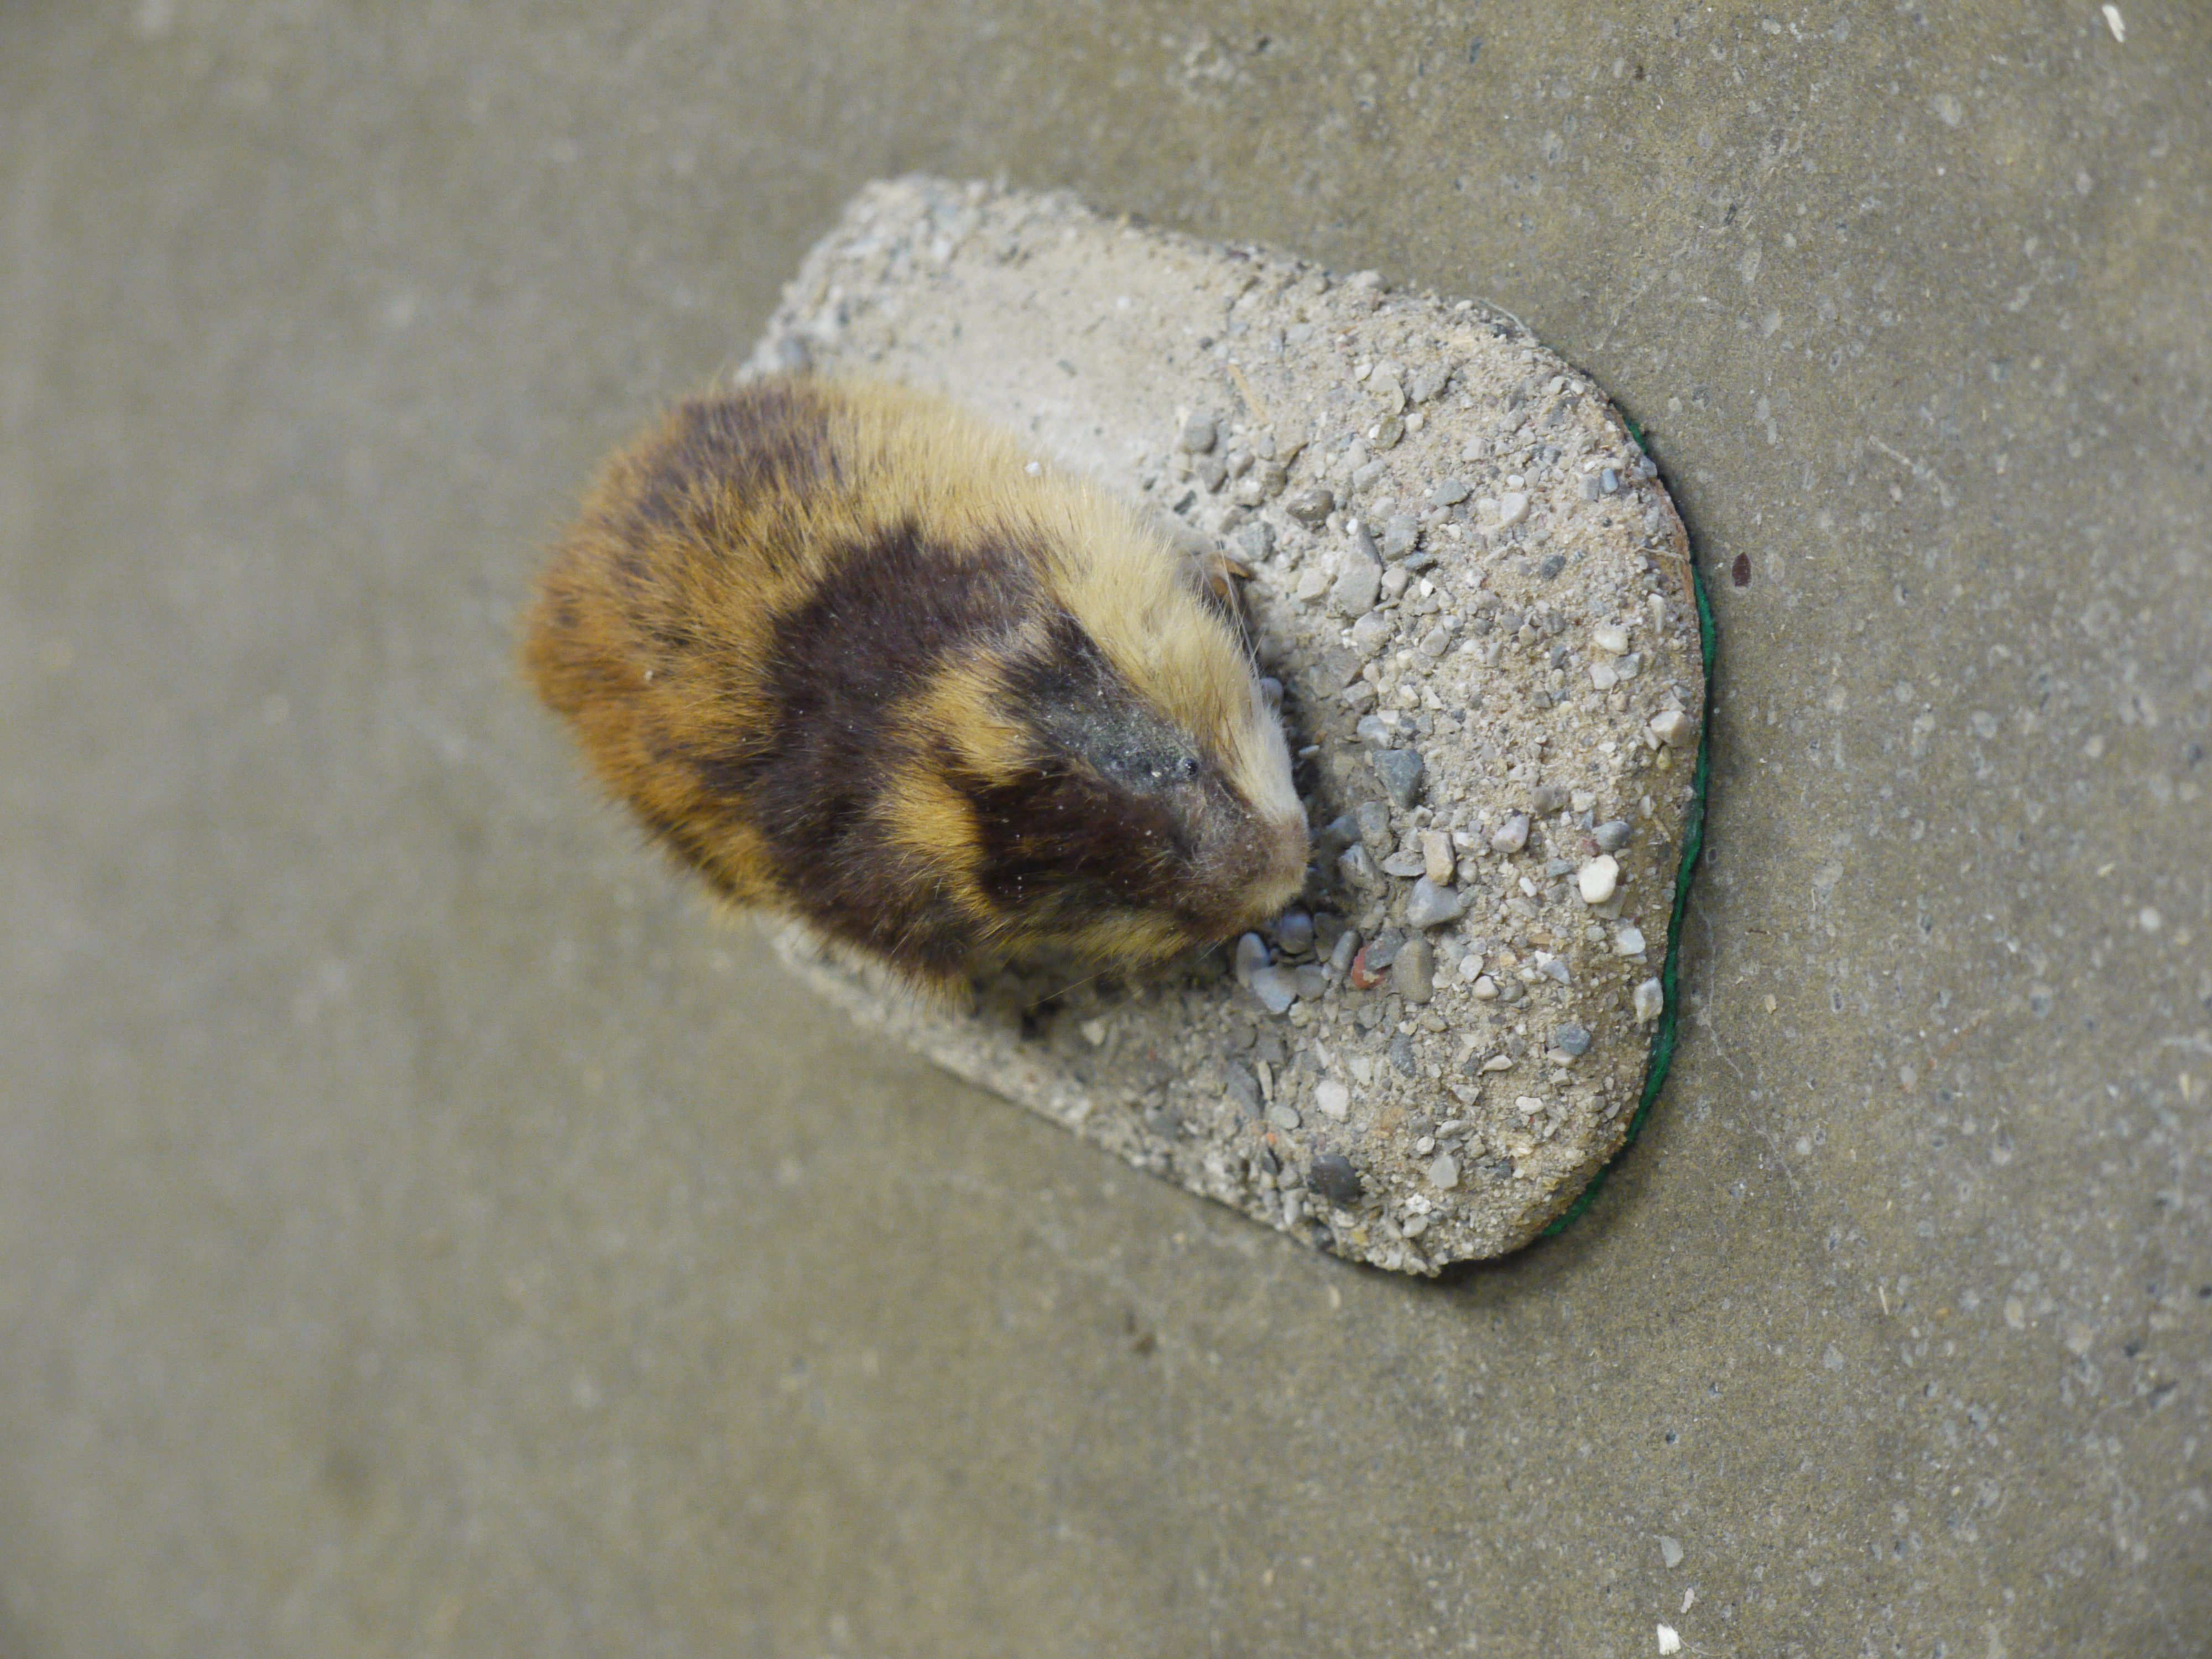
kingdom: Animalia
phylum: Chordata
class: Mammalia
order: Rodentia
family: Cricetidae
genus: Lemmus
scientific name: Lemmus lemmus
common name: Norway lemming
